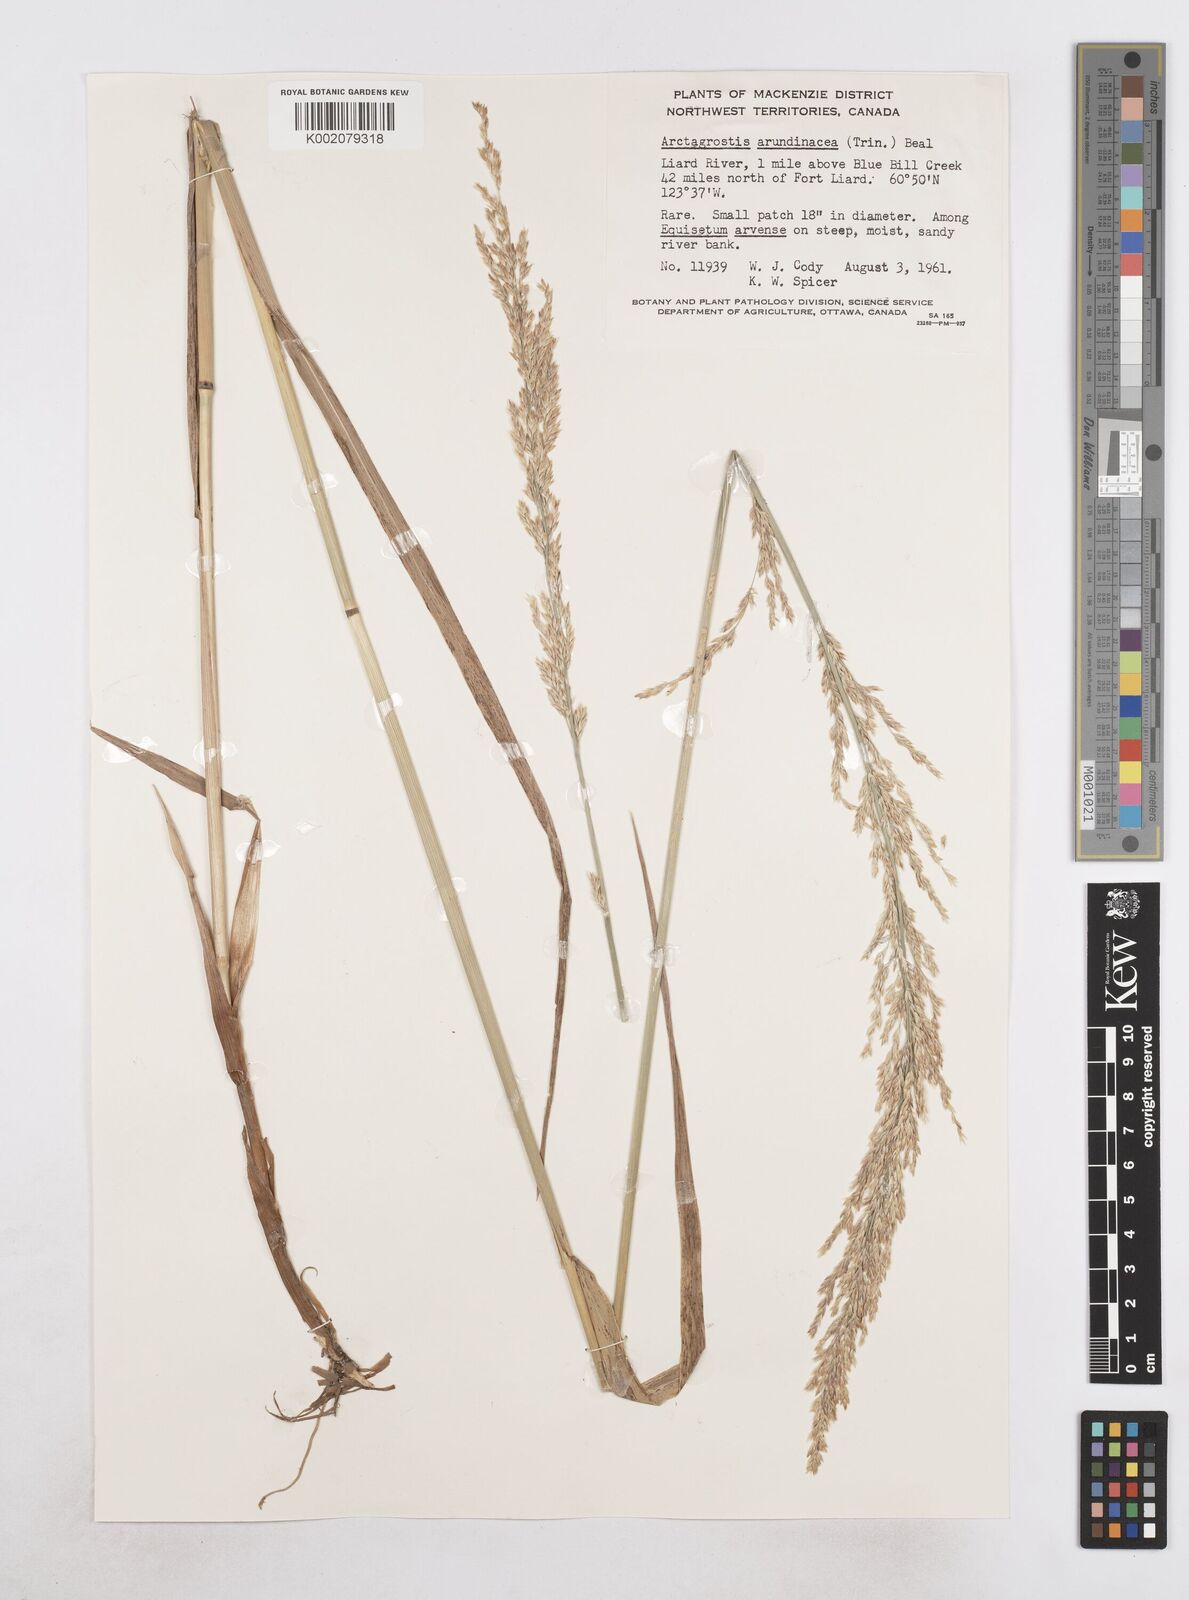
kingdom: Plantae
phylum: Tracheophyta
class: Liliopsida
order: Poales
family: Poaceae
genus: Arctagrostis
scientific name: Arctagrostis arundinacea
